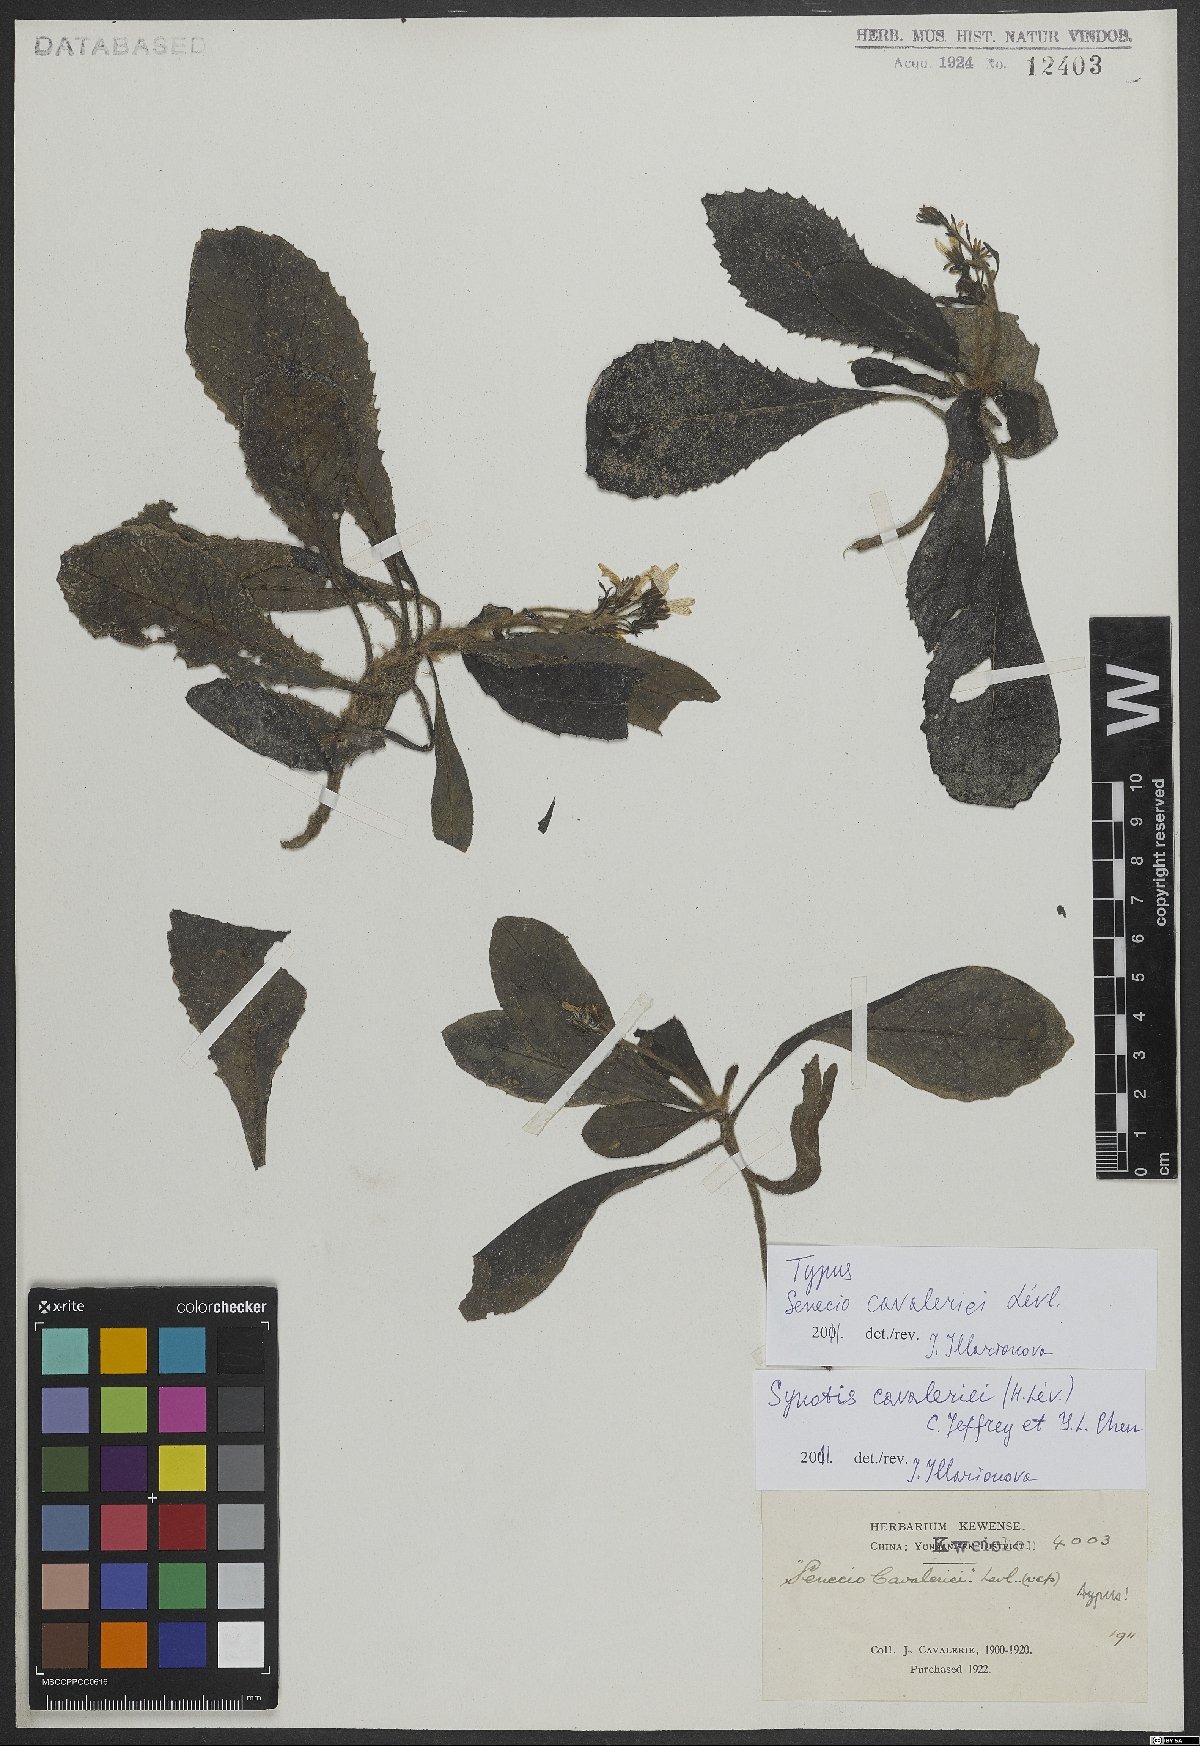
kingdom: Plantae
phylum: Tracheophyta
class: Magnoliopsida
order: Asterales
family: Asteraceae
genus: Synotis
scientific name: Synotis cavaleriei
